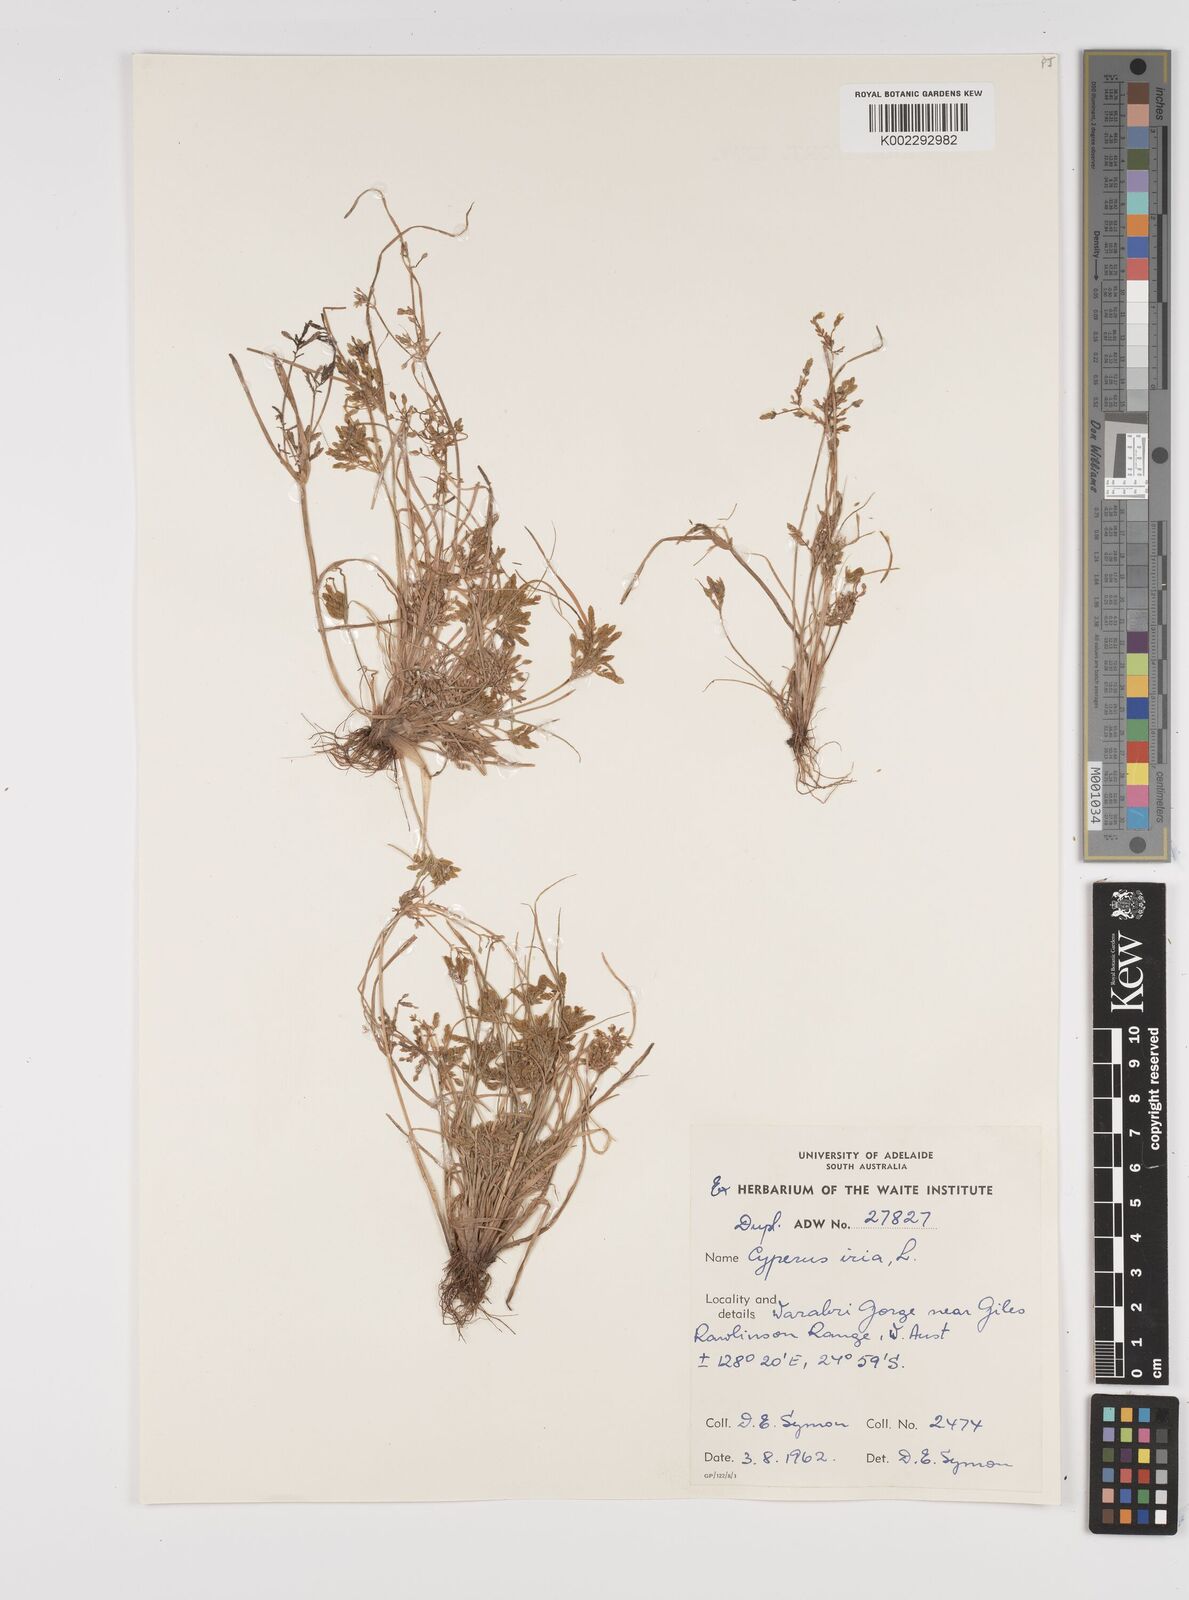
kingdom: Plantae
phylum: Tracheophyta
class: Liliopsida
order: Poales
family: Cyperaceae
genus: Cyperus
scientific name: Cyperus iria
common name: Ricefield flatsedge
